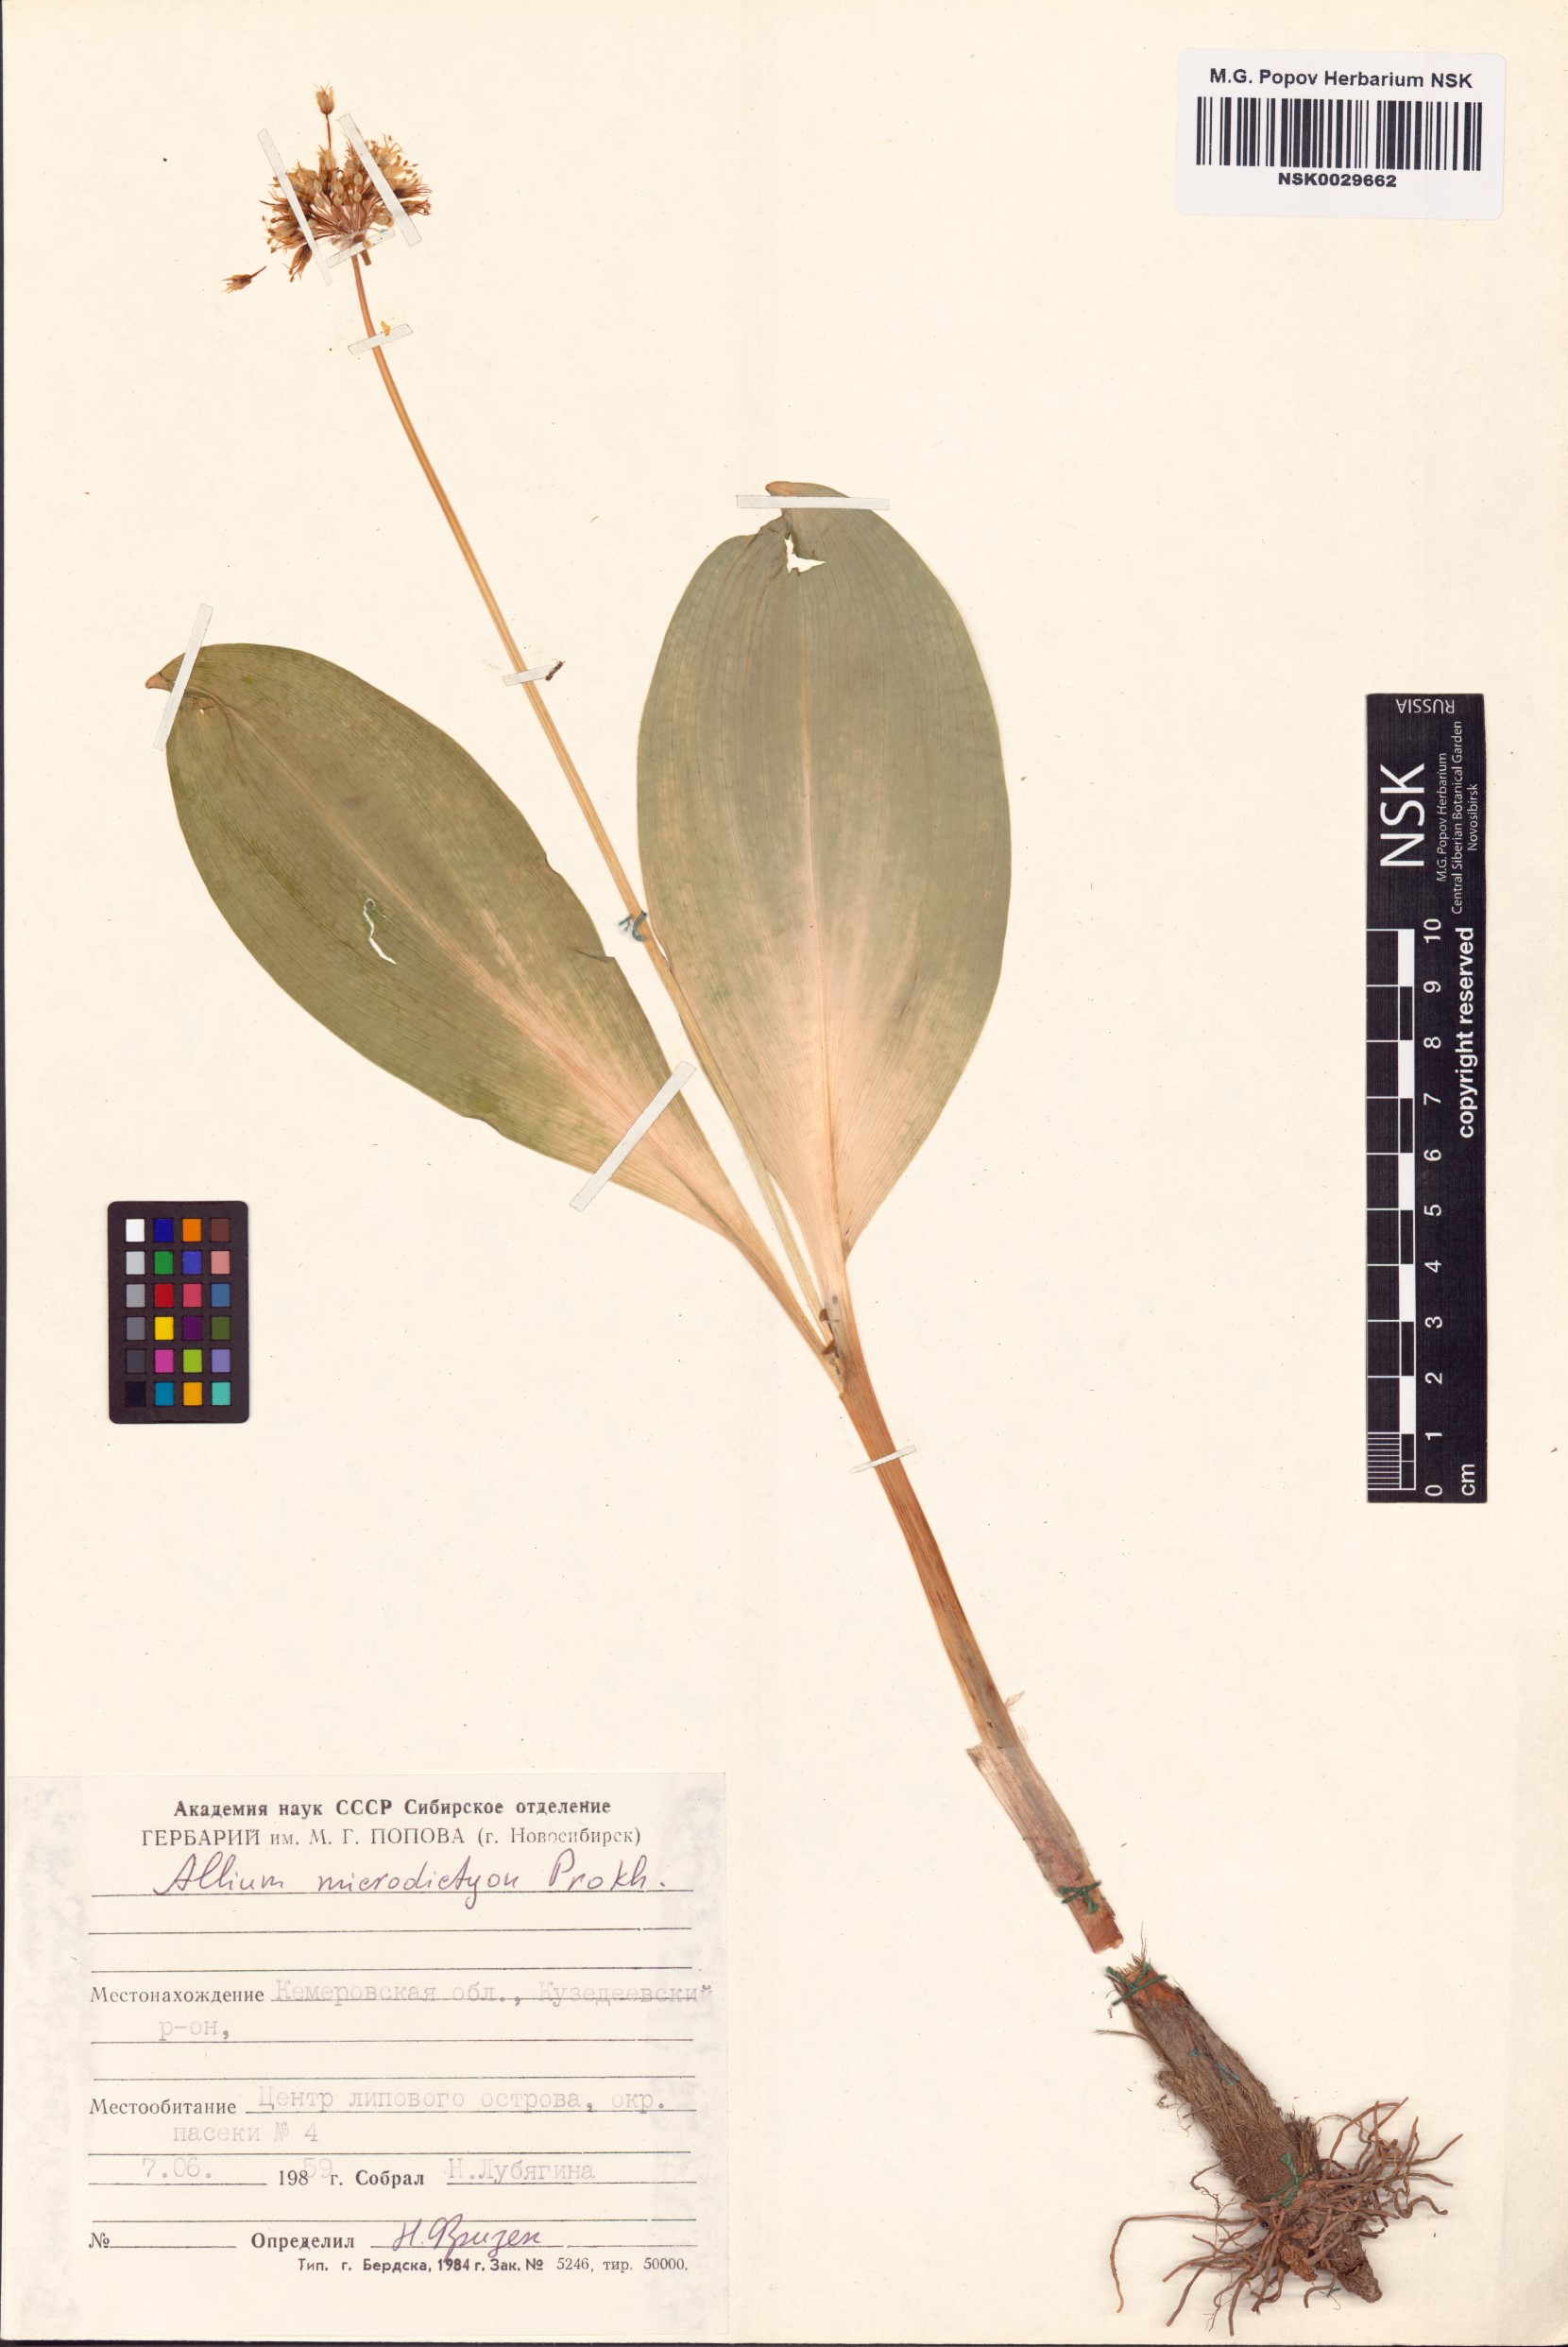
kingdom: Plantae
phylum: Tracheophyta
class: Liliopsida
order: Asparagales
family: Amaryllidaceae
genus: Allium
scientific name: Allium microdictyon
